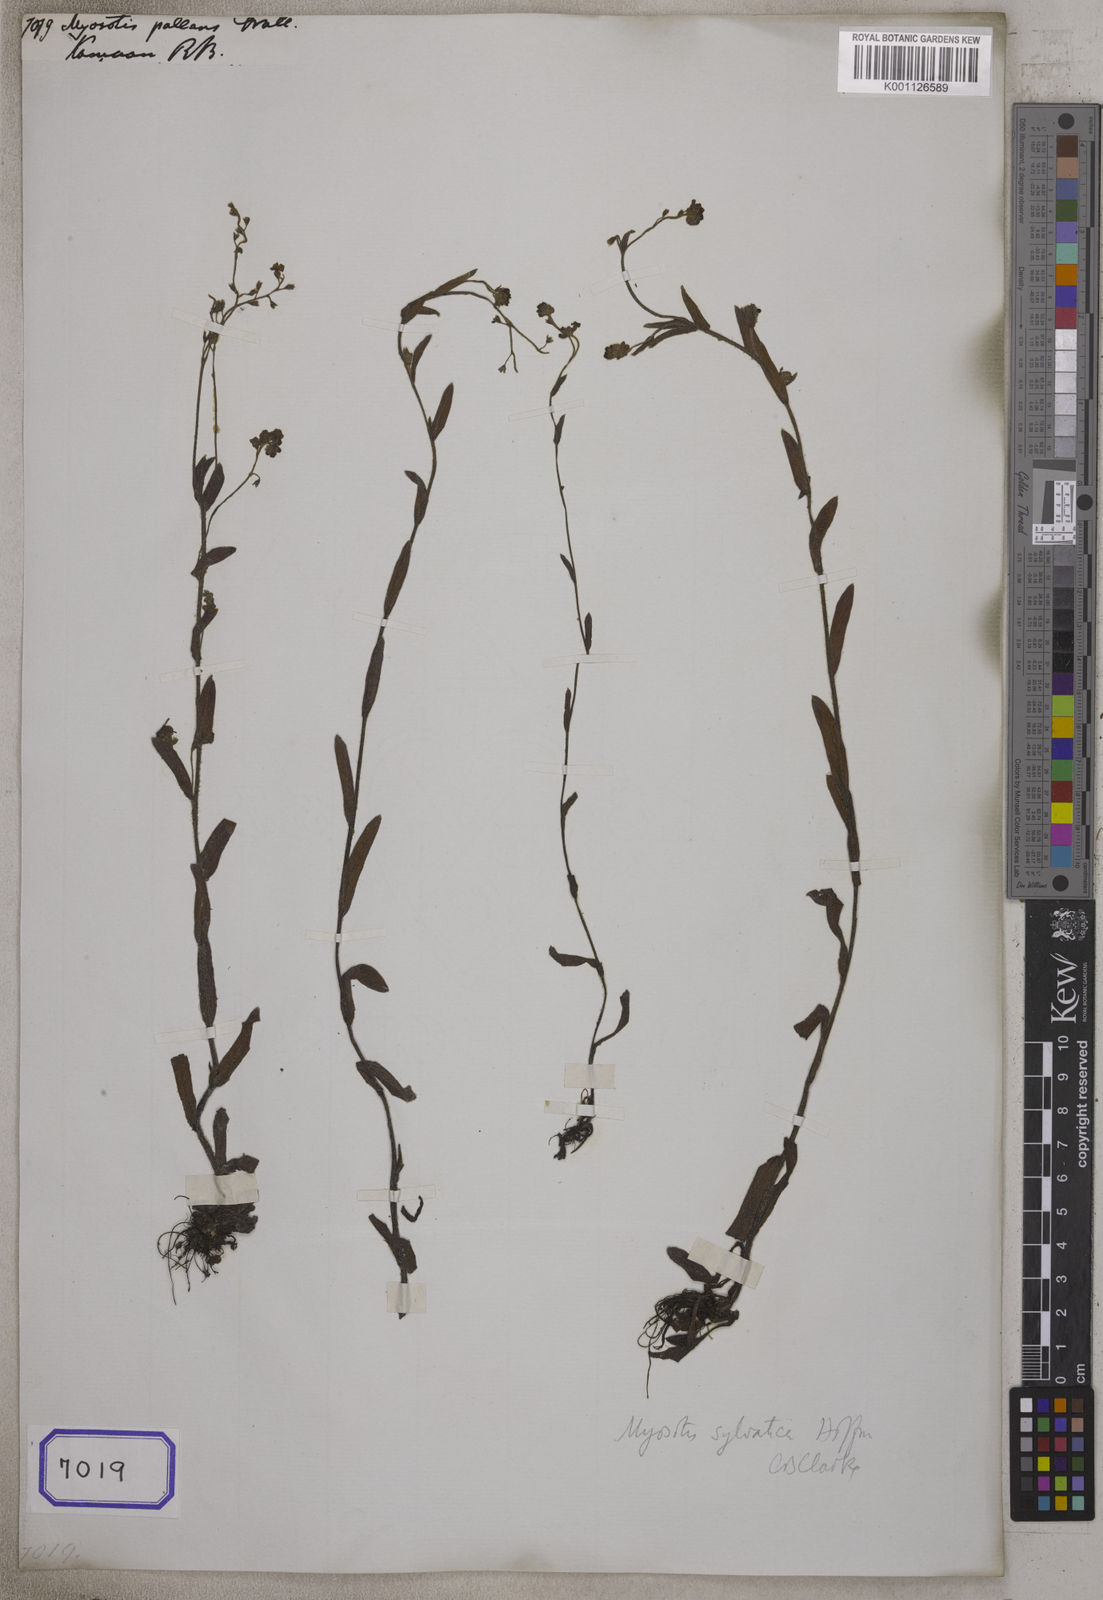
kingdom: Plantae
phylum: Tracheophyta
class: Magnoliopsida
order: Boraginales
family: Boraginaceae
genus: Myosotis
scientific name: Myosotis
